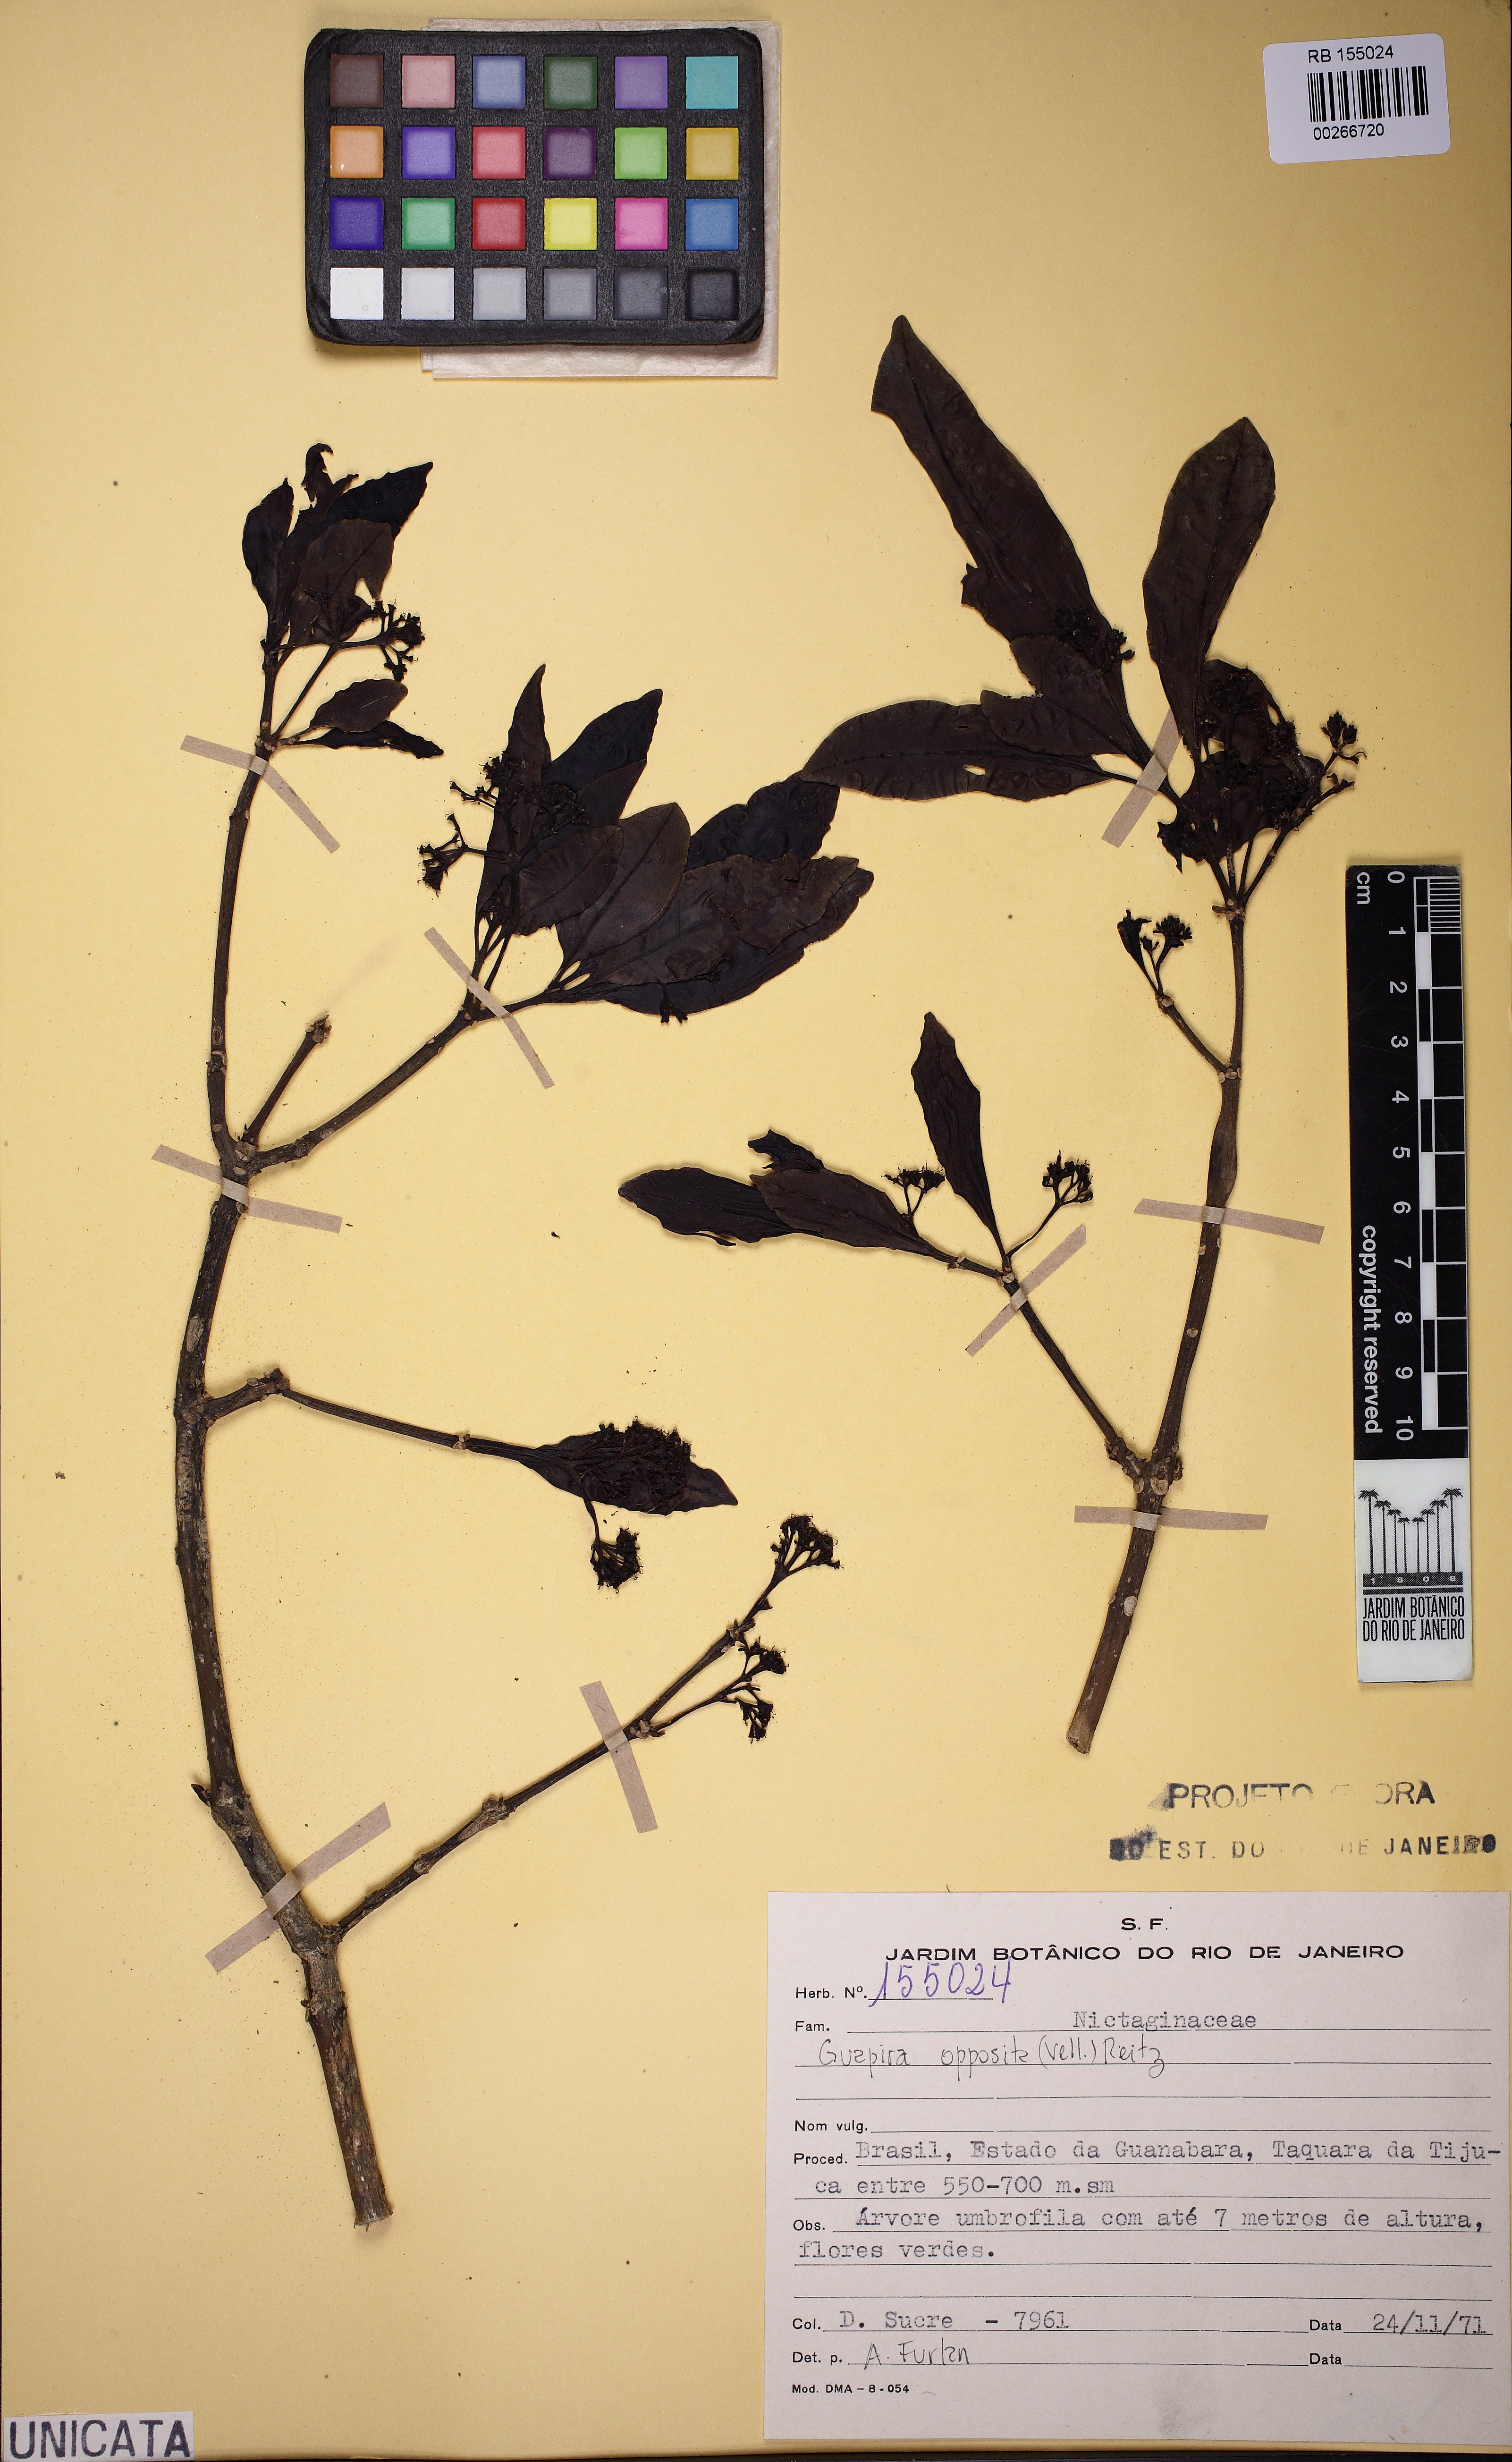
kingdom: Plantae
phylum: Tracheophyta
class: Magnoliopsida
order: Caryophyllales
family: Nyctaginaceae
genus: Guapira
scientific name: Guapira opposita
